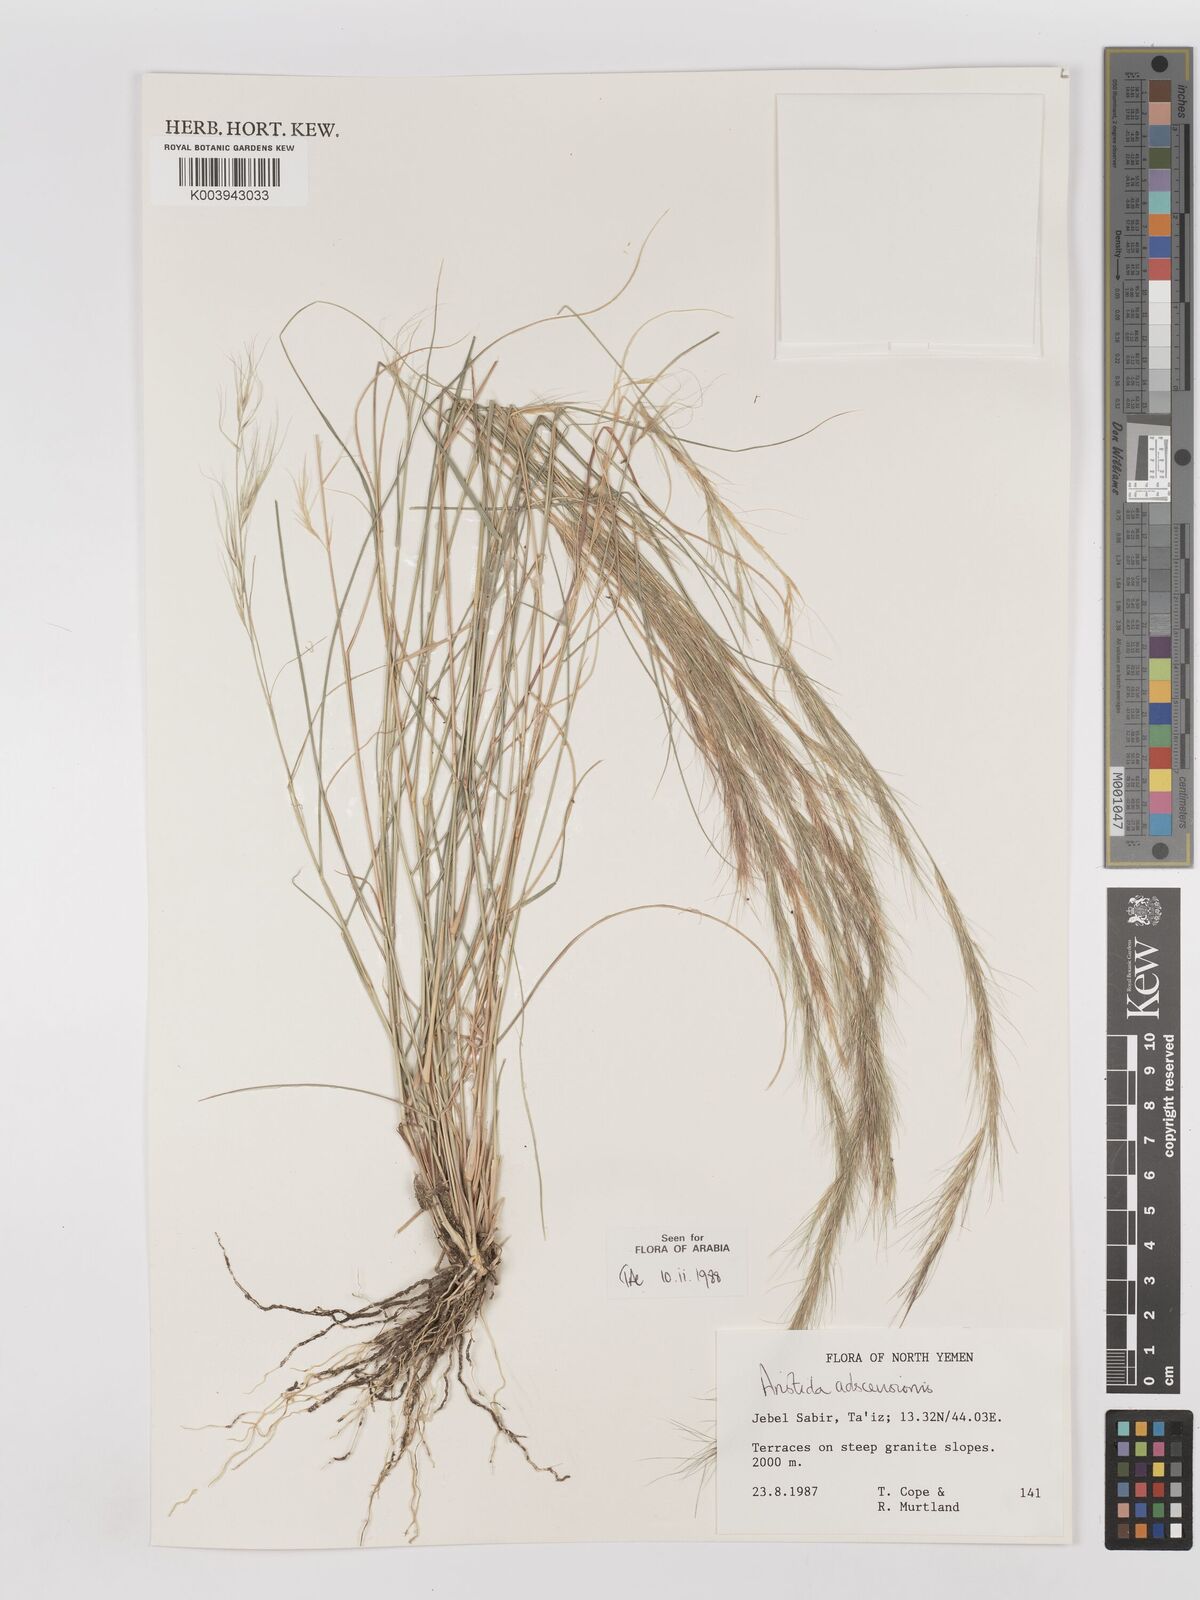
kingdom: Plantae
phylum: Tracheophyta
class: Liliopsida
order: Poales
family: Poaceae
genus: Aristida
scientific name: Aristida adscensionis
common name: Sixweeks threeawn
